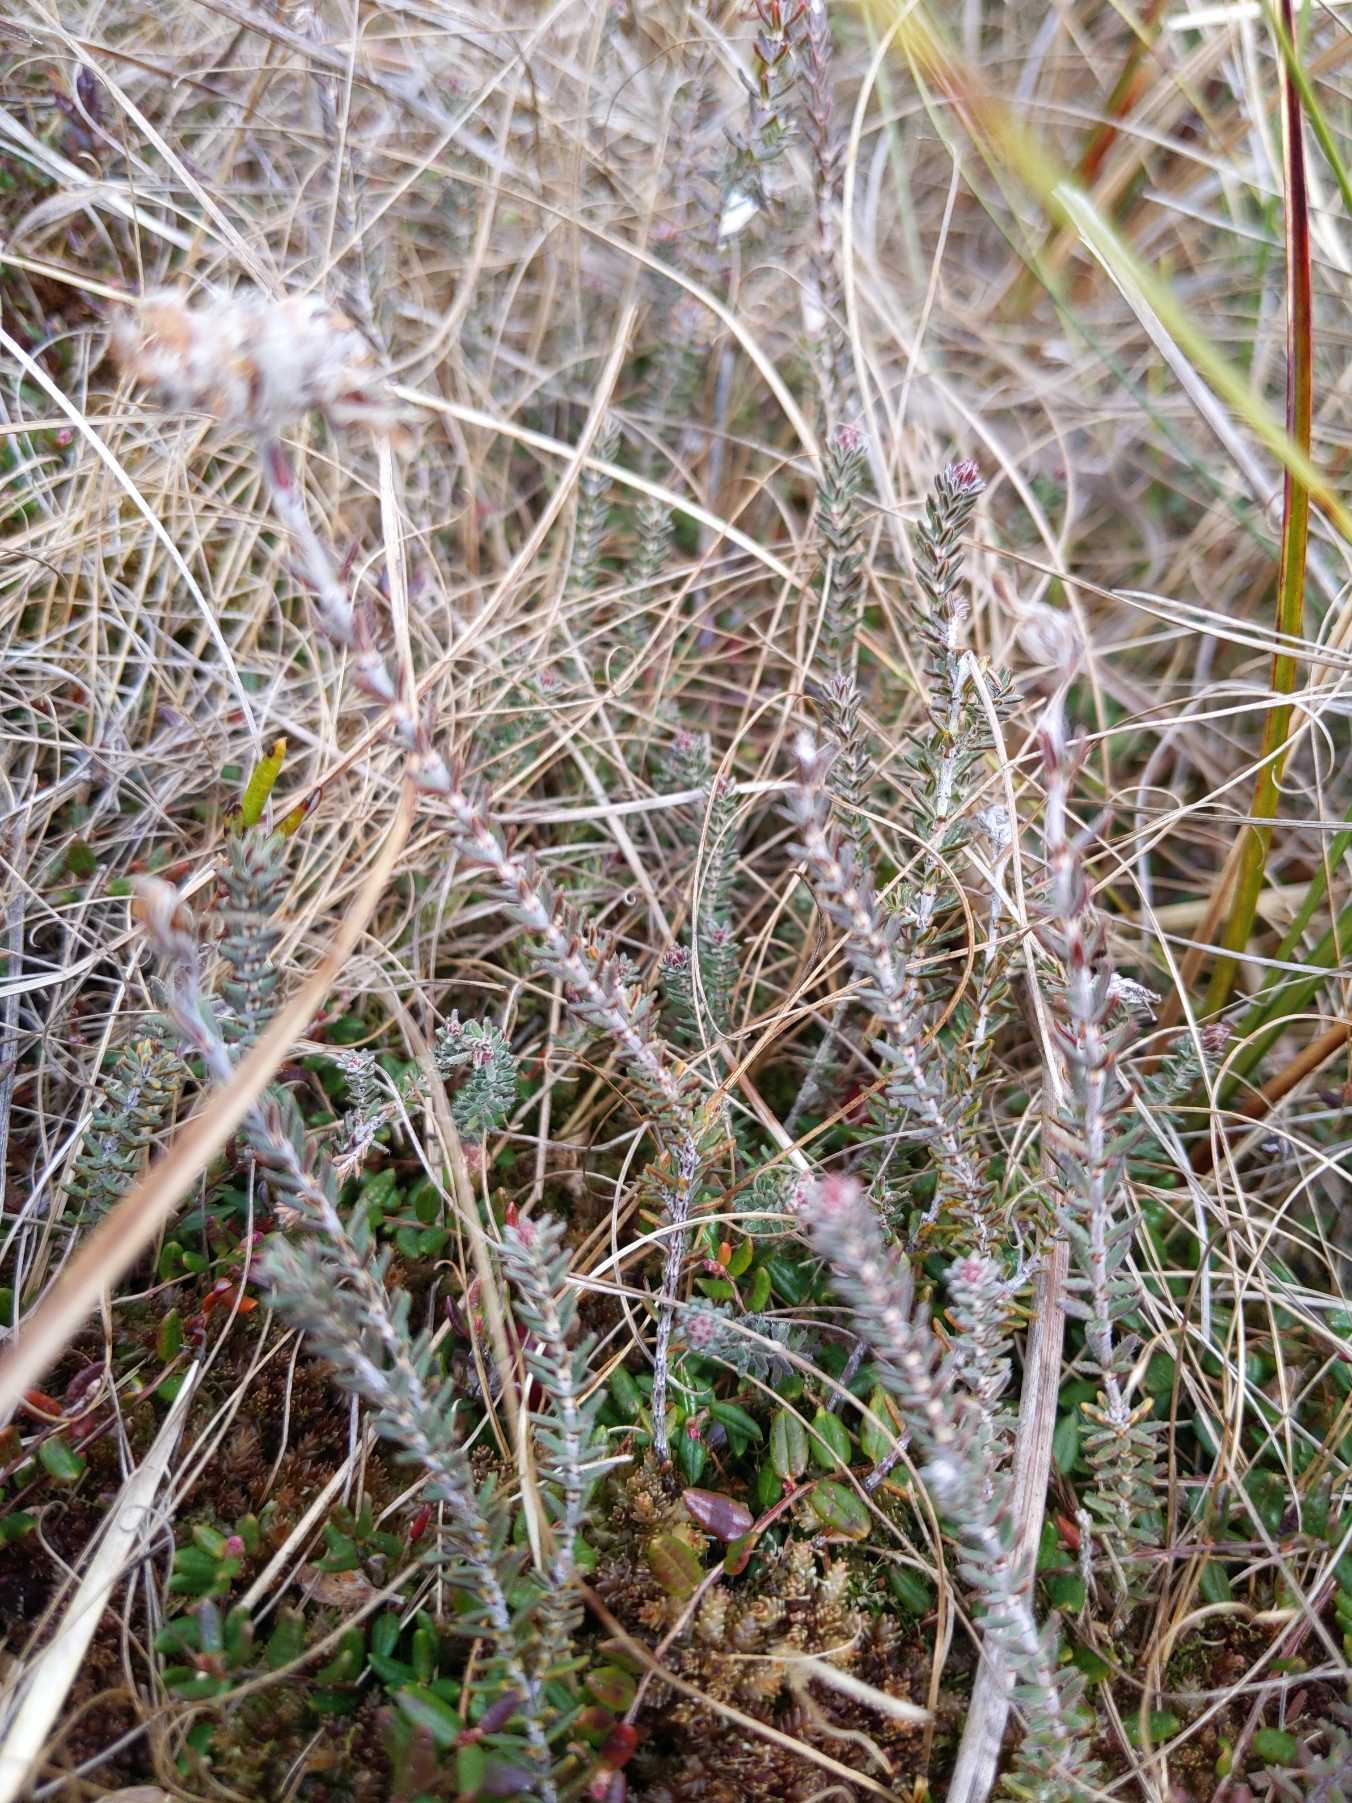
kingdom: Plantae
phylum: Tracheophyta
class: Magnoliopsida
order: Ericales
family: Ericaceae
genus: Erica
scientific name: Erica tetralix
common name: Klokkelyng
